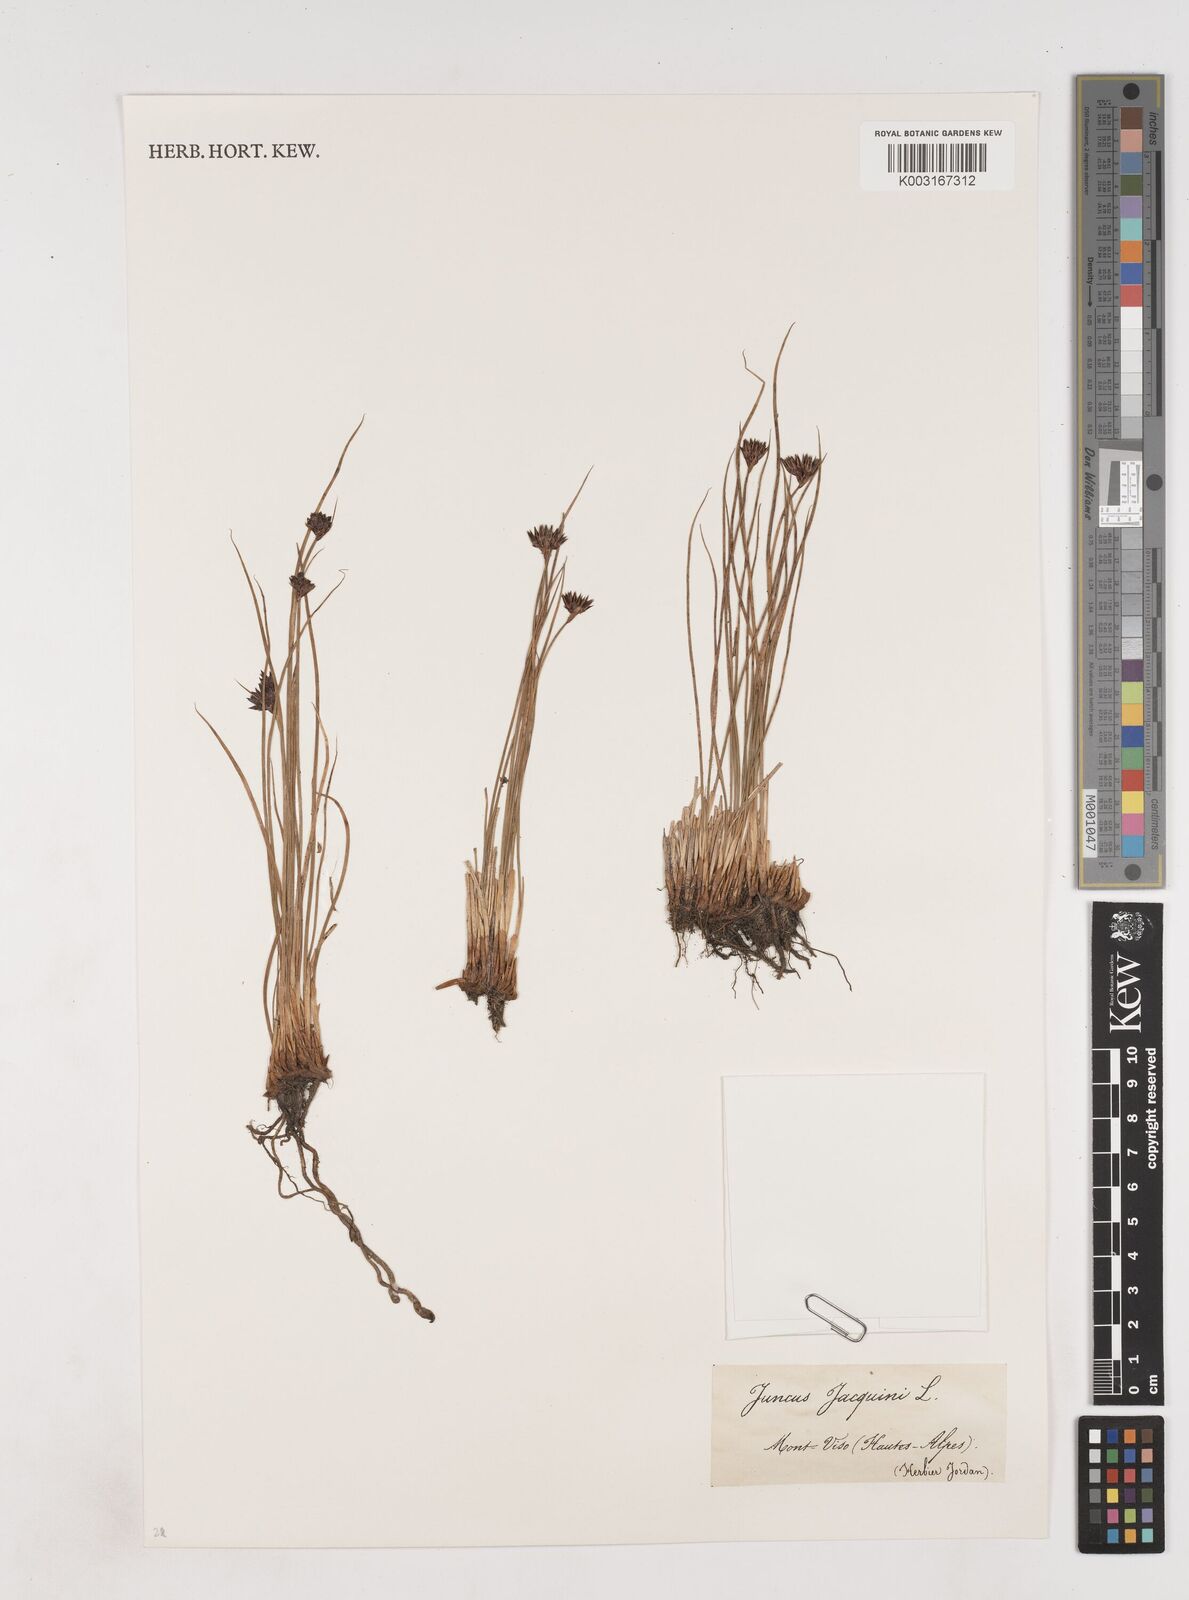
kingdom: Plantae
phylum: Tracheophyta
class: Liliopsida
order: Poales
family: Juncaceae
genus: Juncus
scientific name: Juncus jacquinii
